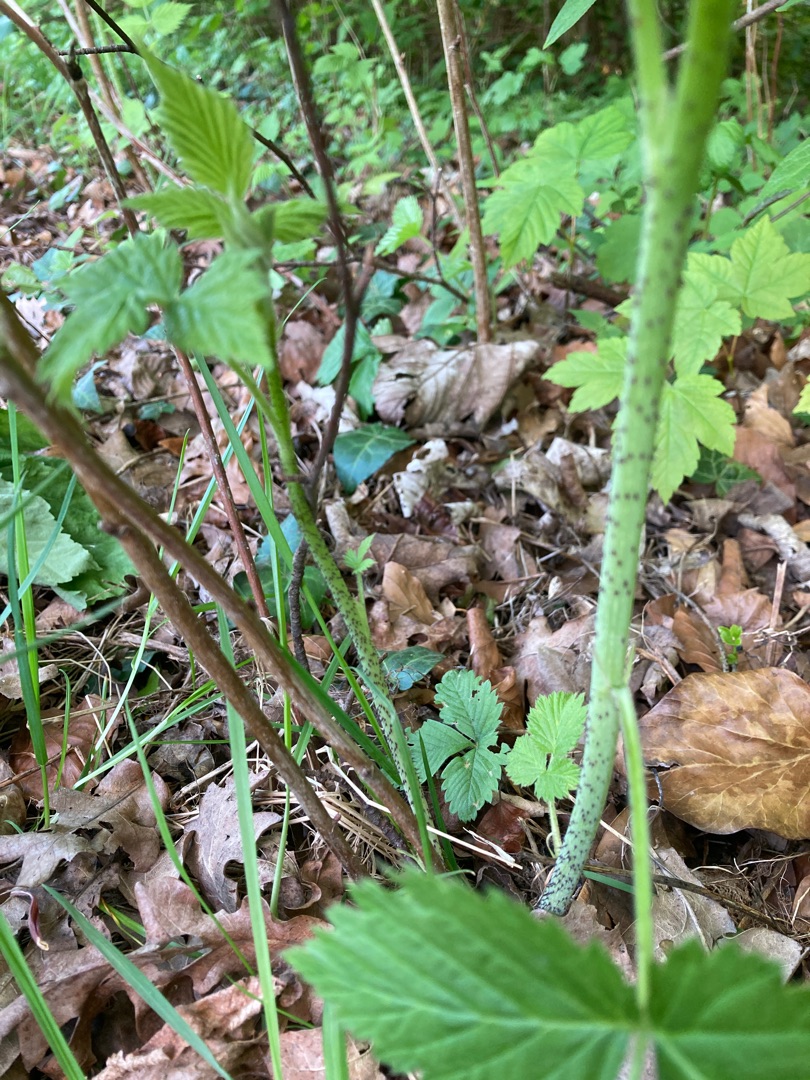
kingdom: Plantae
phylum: Tracheophyta
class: Magnoliopsida
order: Rosales
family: Rosaceae
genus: Rubus
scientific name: Rubus idaeus
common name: Hindbær
